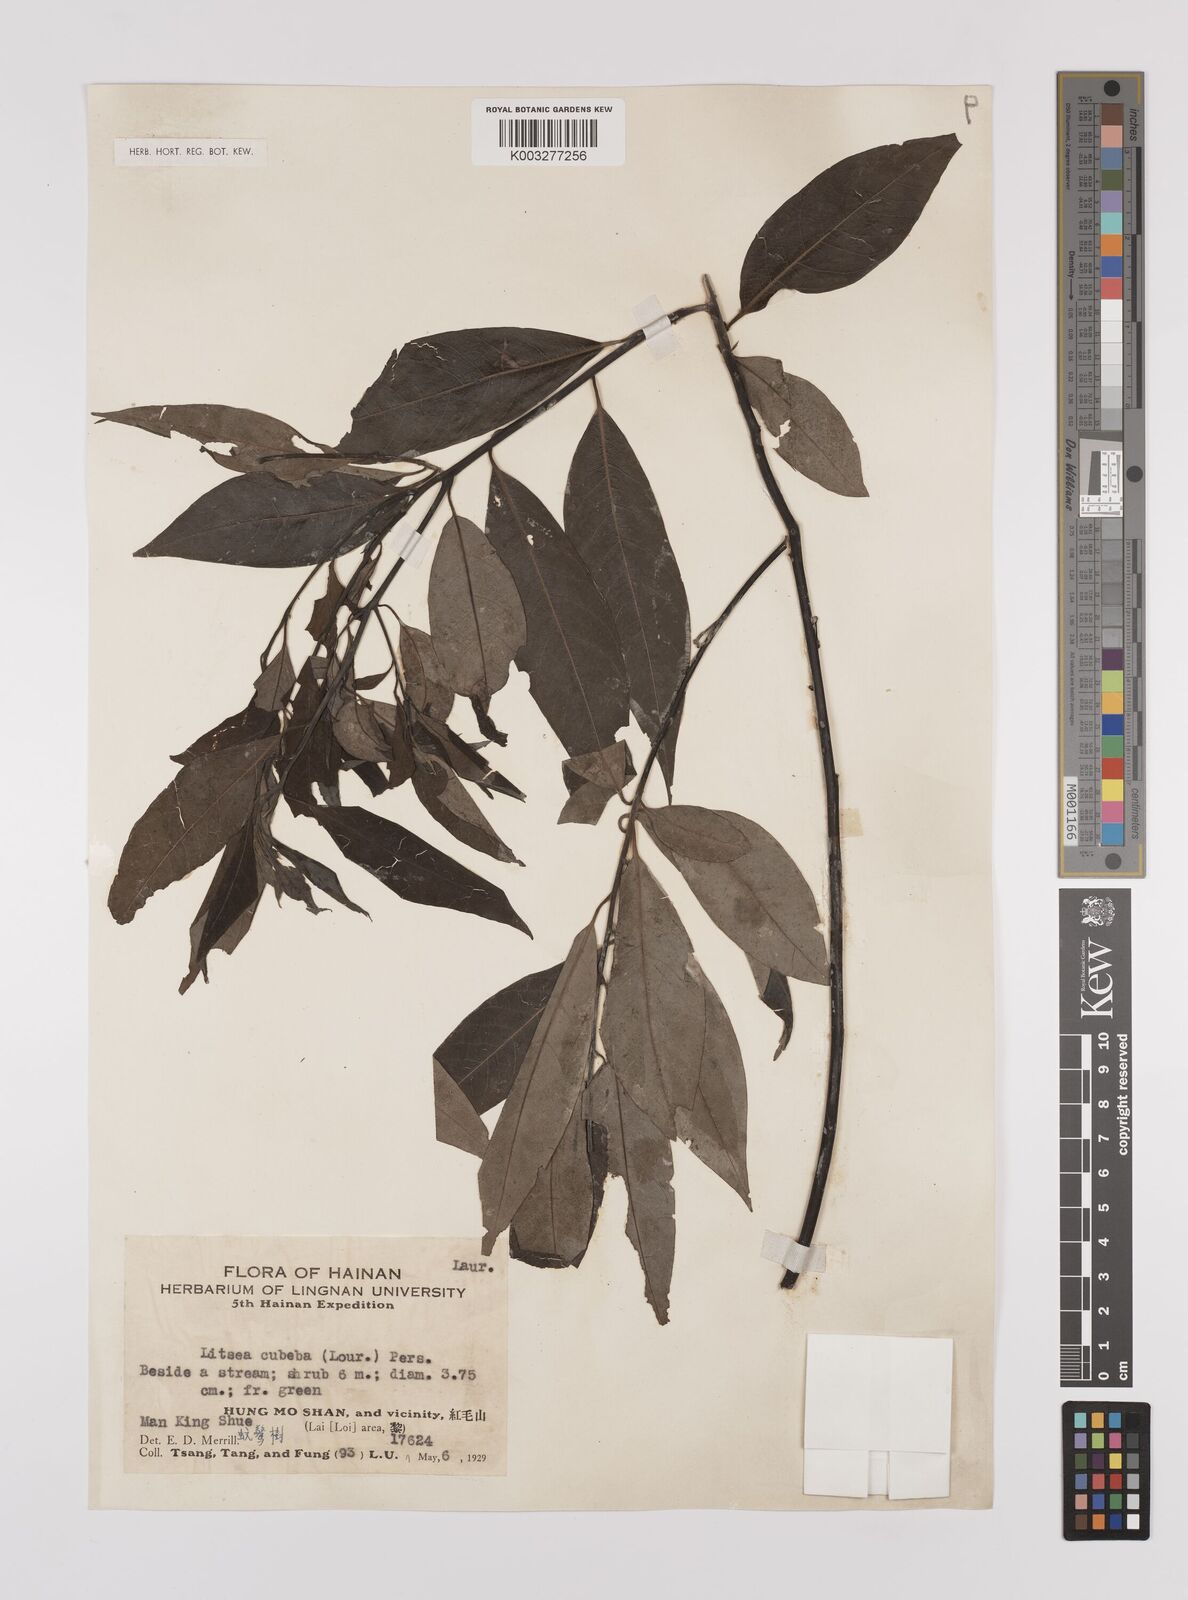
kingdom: Plantae
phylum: Tracheophyta
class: Magnoliopsida
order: Laurales
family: Lauraceae
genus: Litsea
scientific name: Litsea cubeba
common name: Mountain-pepper
